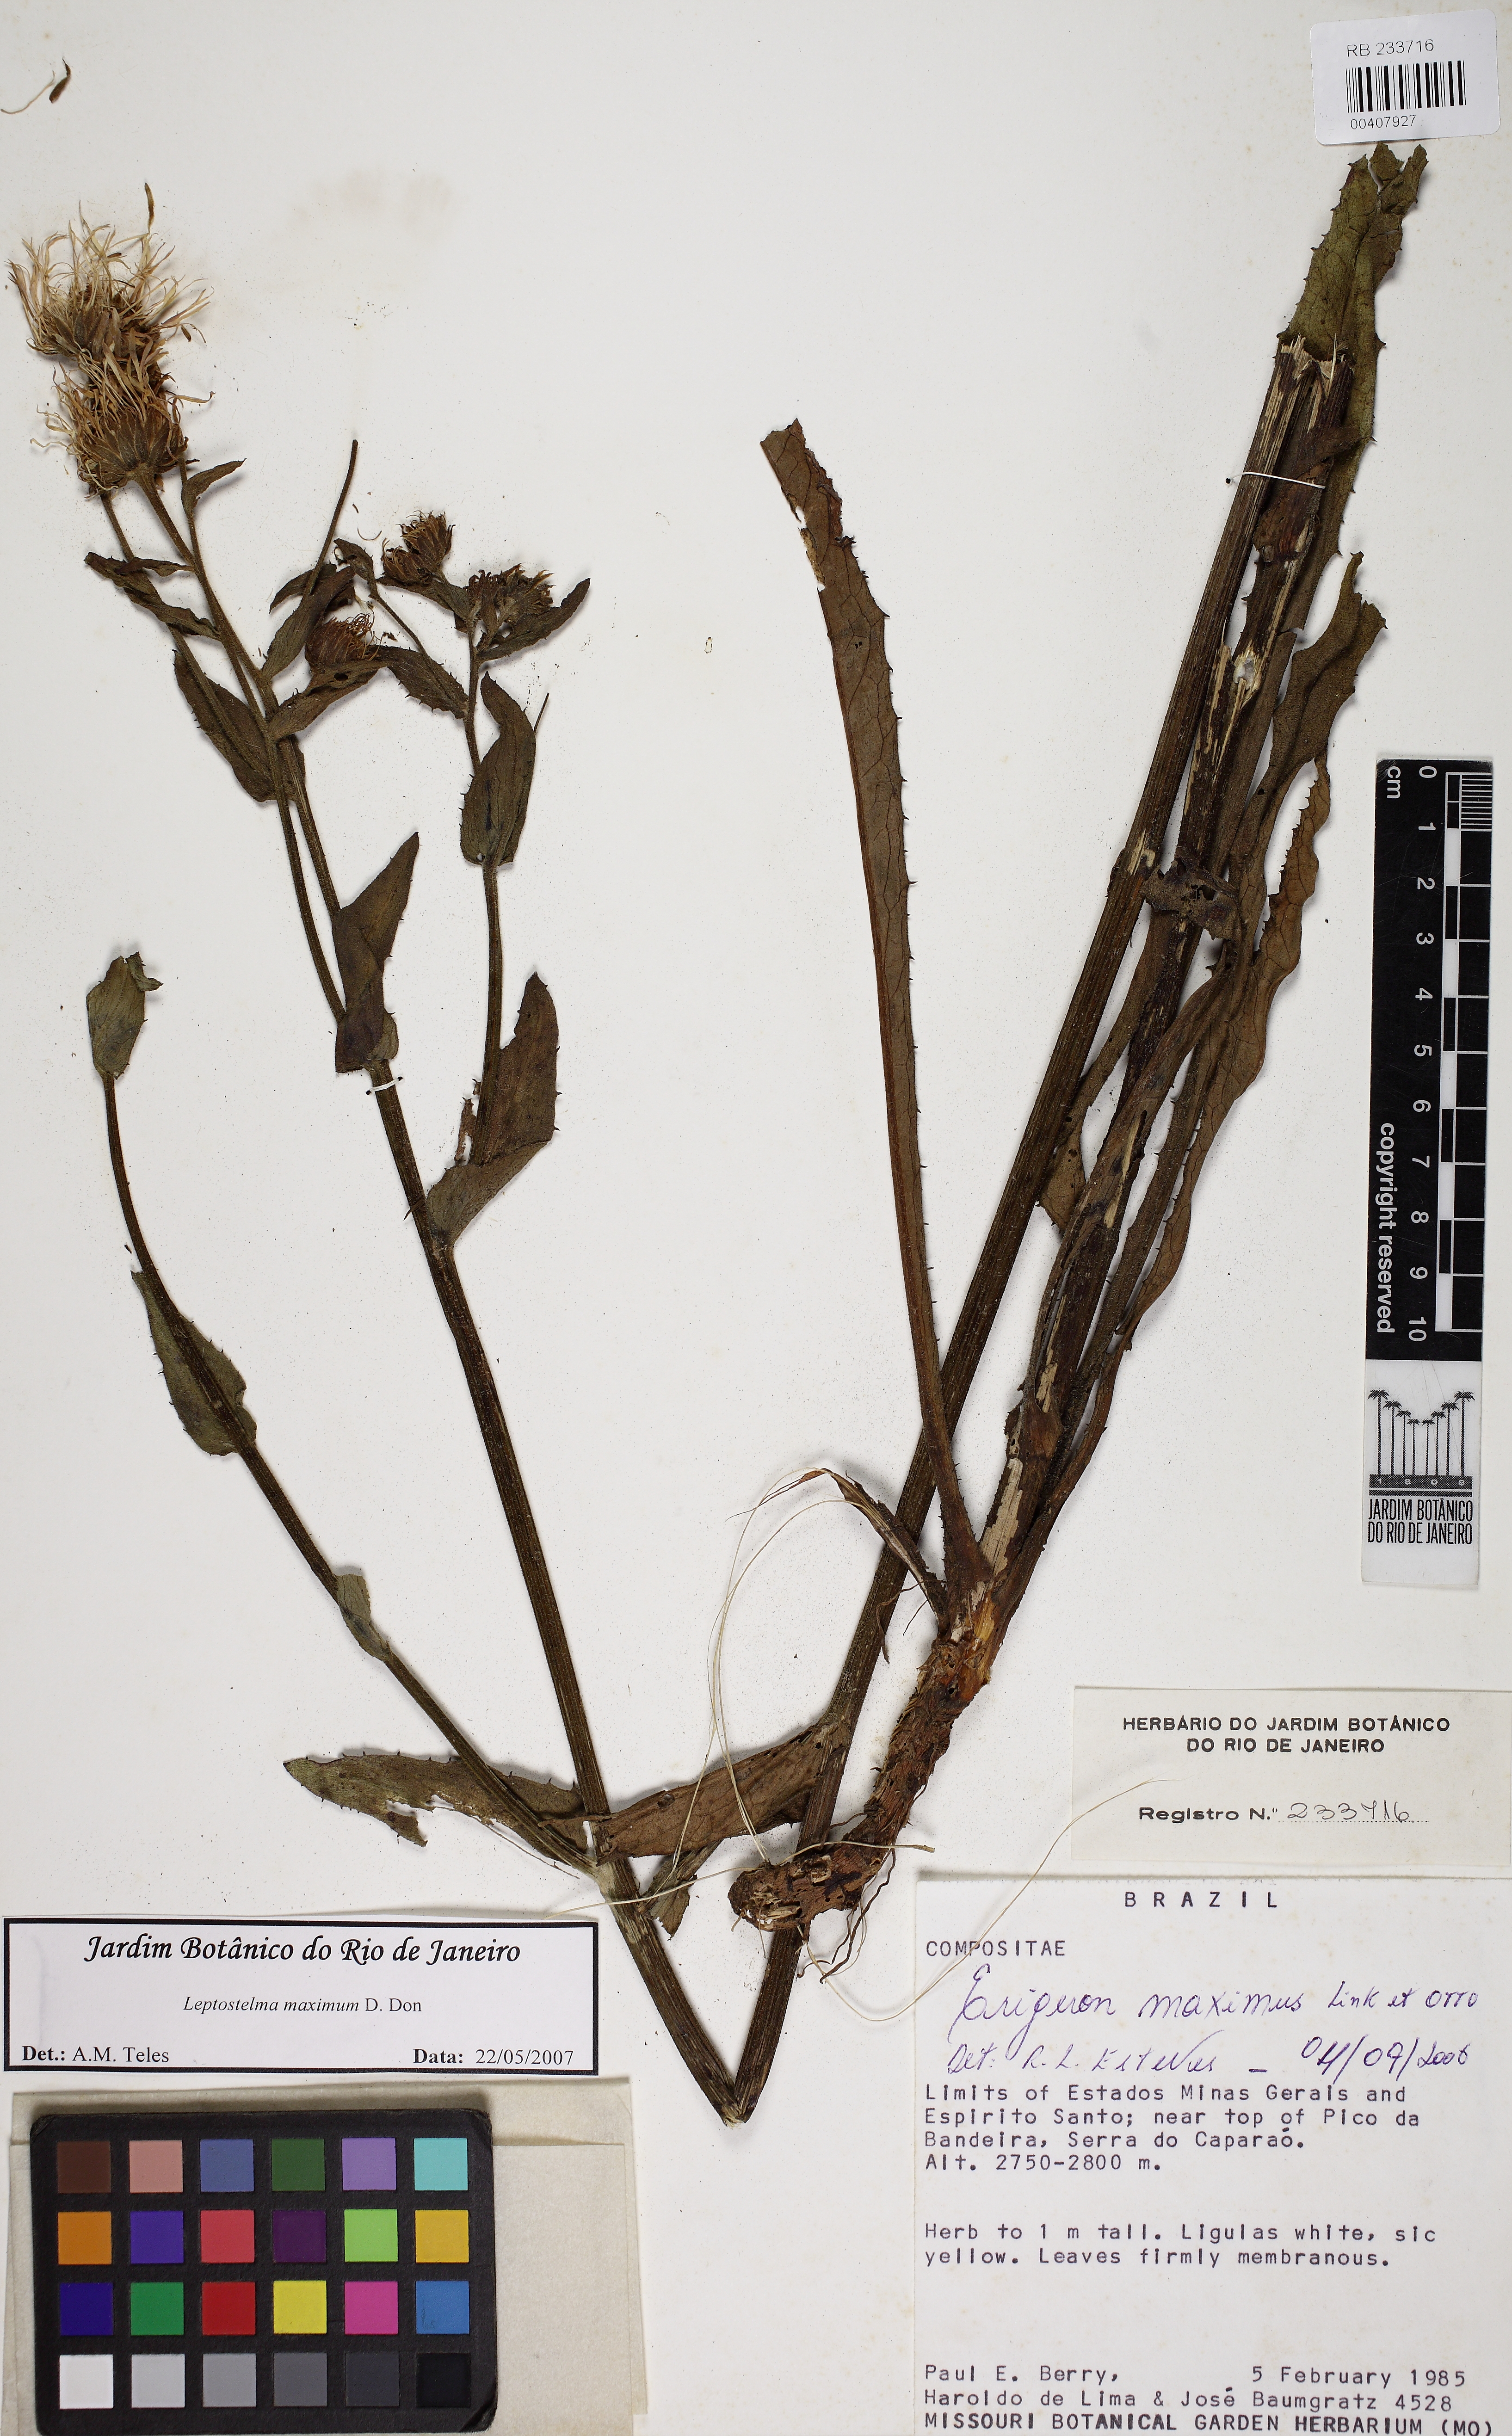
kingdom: Plantae
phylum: Tracheophyta
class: Magnoliopsida
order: Asterales
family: Asteraceae
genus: Leptostelma
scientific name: Leptostelma maxima
